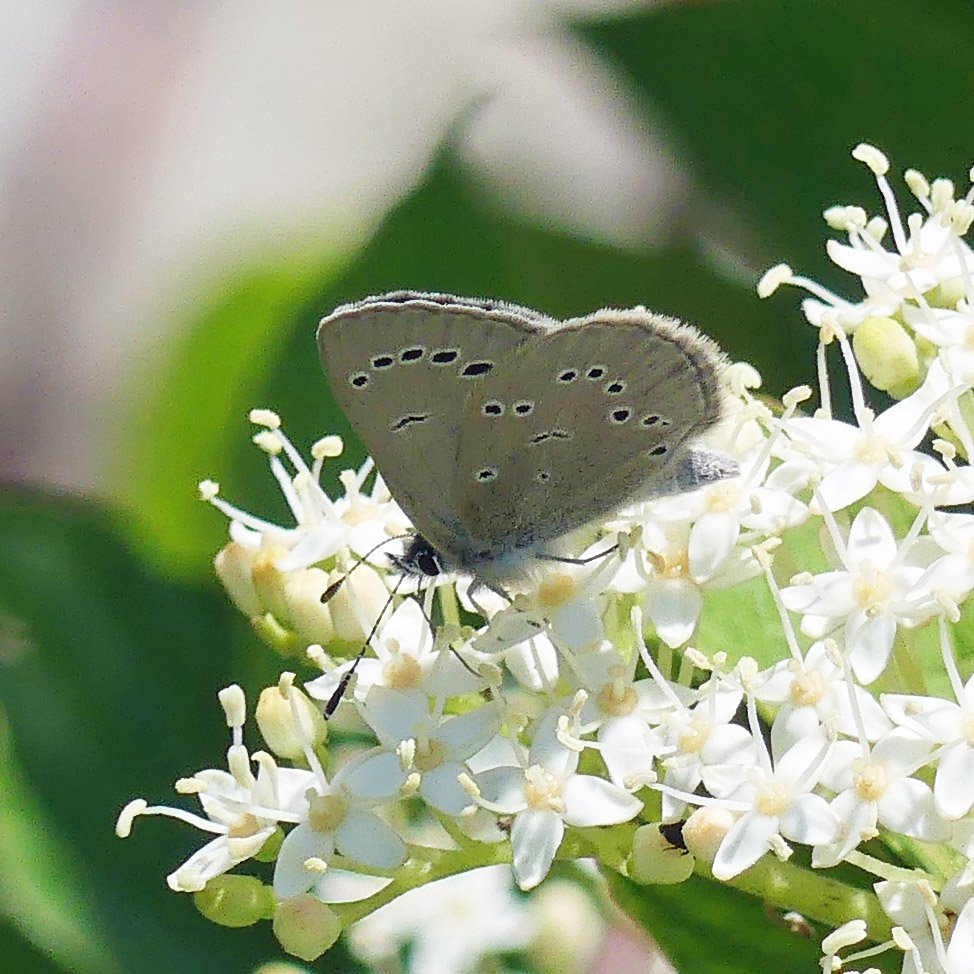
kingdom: Animalia
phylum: Arthropoda
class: Insecta
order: Lepidoptera
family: Lycaenidae
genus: Glaucopsyche
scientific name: Glaucopsyche lygdamus
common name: Silvery Blue
